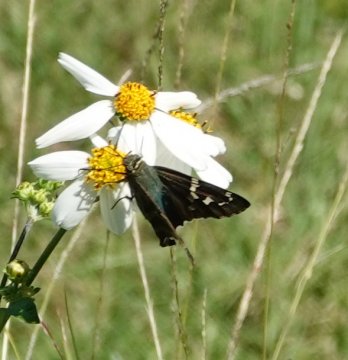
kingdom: Animalia
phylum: Arthropoda
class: Insecta
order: Lepidoptera
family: Hesperiidae
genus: Urbanus
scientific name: Urbanus proteus
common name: Long-tailed Skipper
